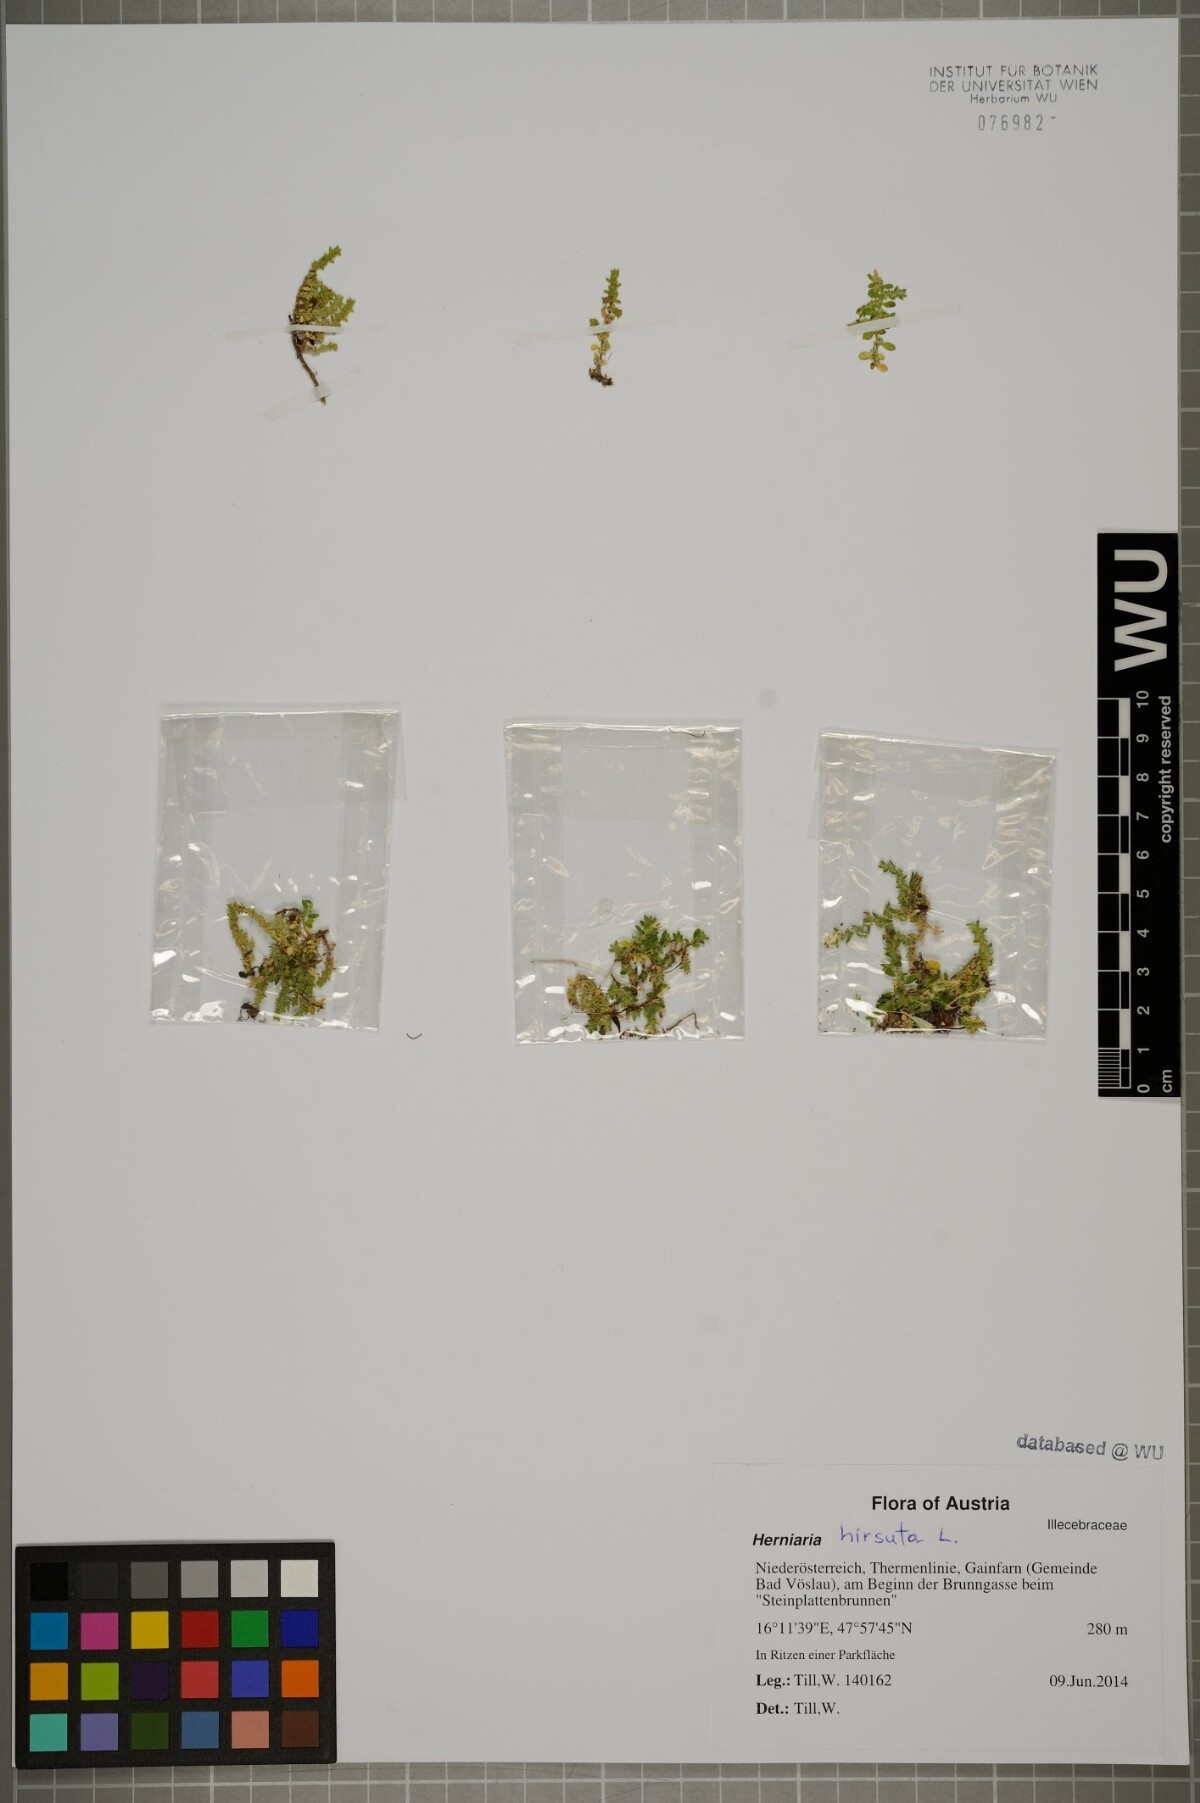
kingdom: Plantae
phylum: Tracheophyta
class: Magnoliopsida
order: Caryophyllales
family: Caryophyllaceae
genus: Herniaria
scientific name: Herniaria hirsuta
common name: Hairy rupturewort
